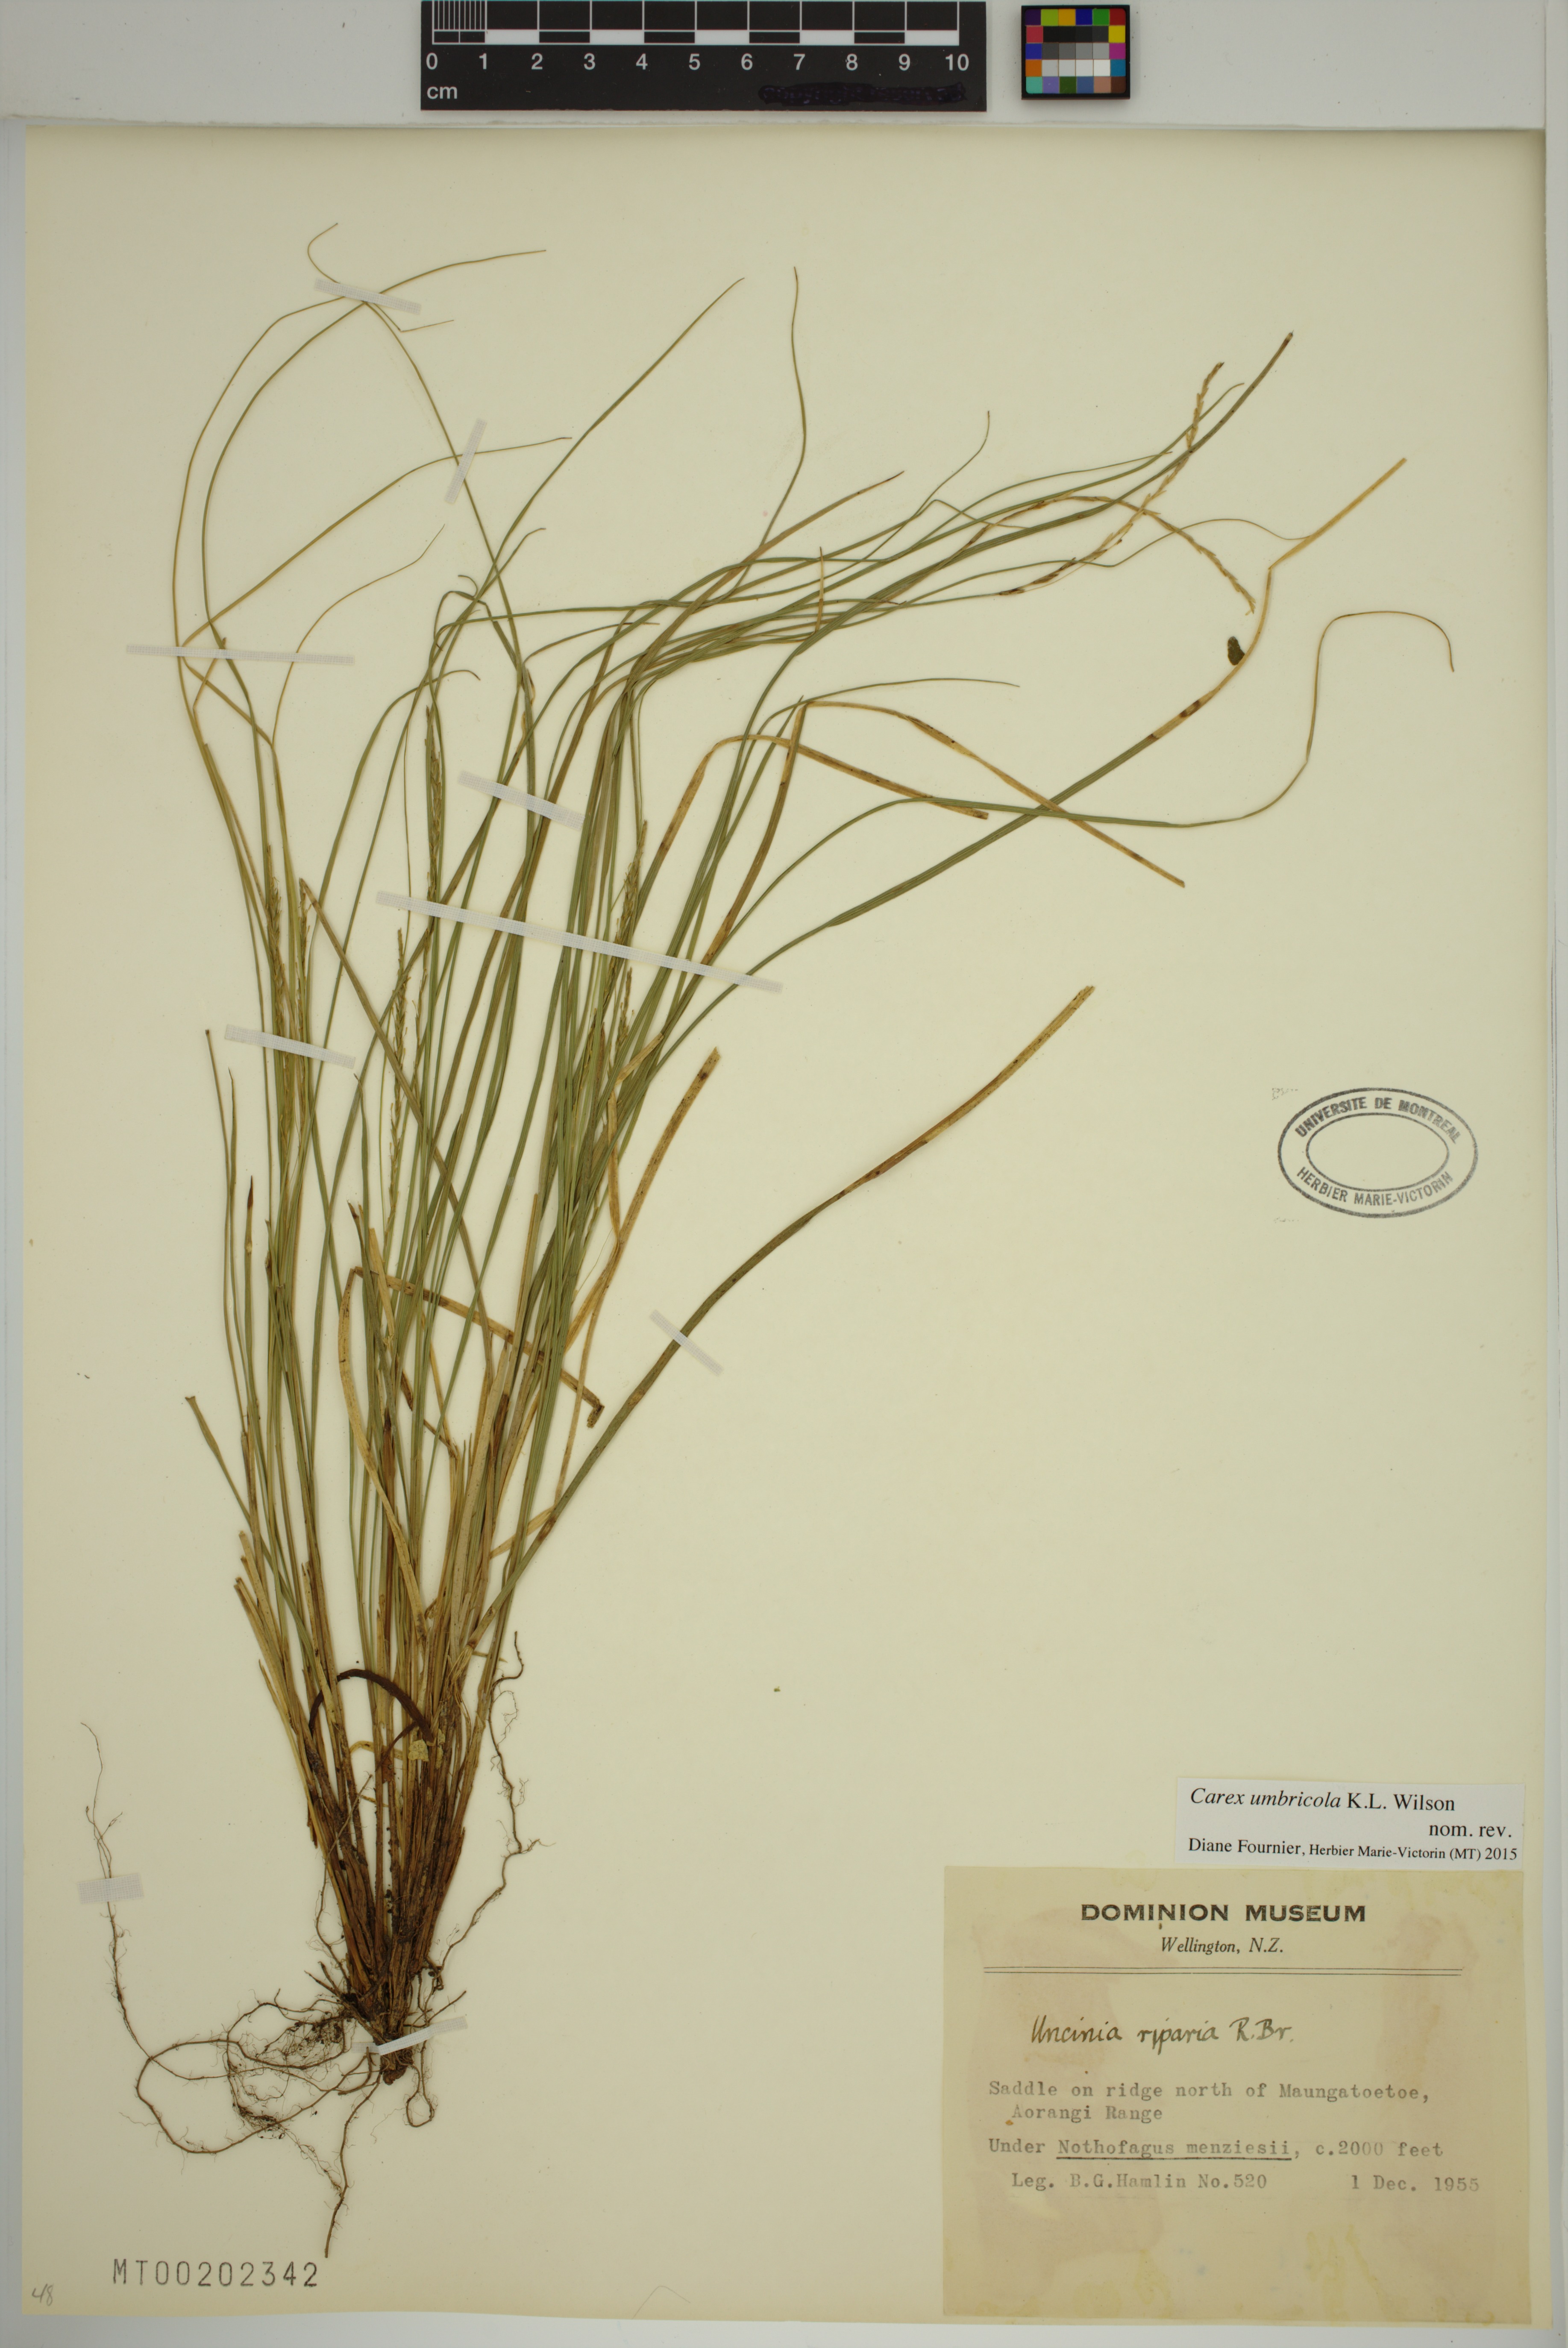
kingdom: Plantae
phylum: Tracheophyta
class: Liliopsida
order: Poales
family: Cyperaceae
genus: Carex
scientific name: Carex umbricola
